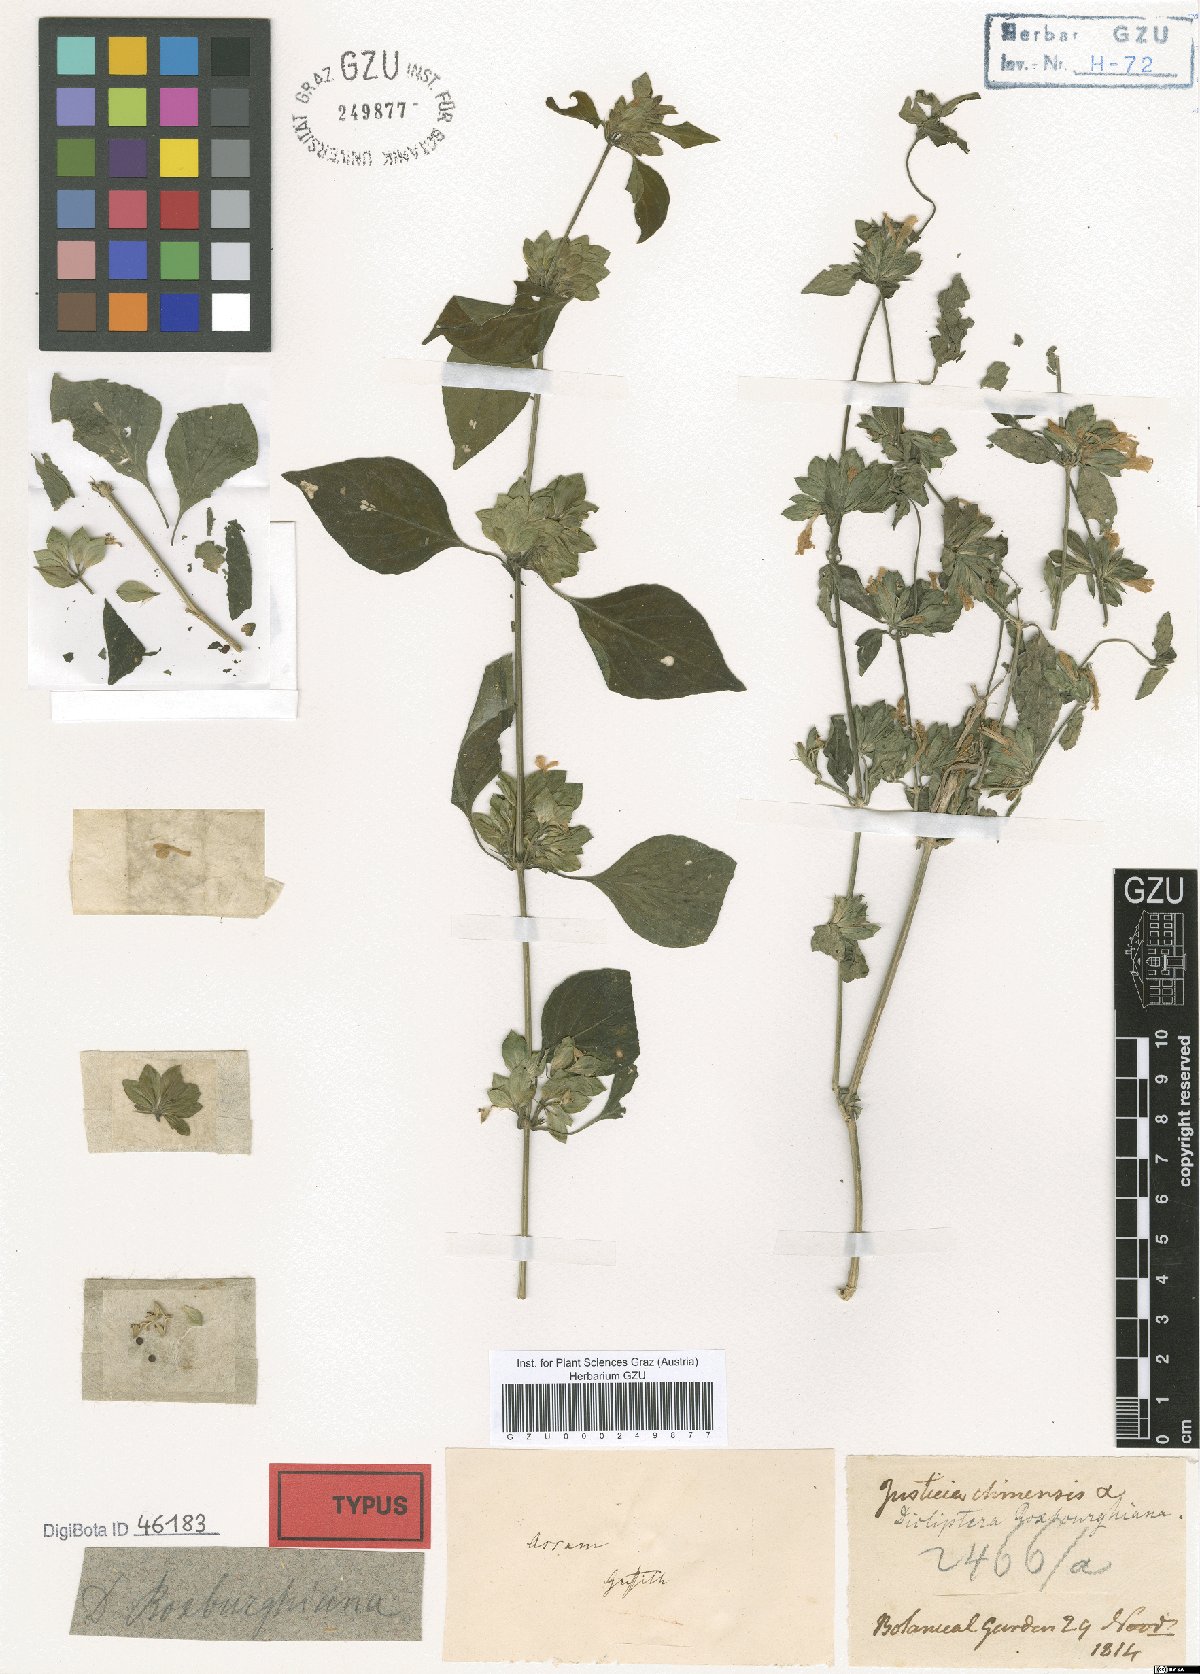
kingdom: Plantae
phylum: Tracheophyta
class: Magnoliopsida
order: Lamiales
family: Acanthaceae
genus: Dicliptera
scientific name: Dicliptera chinensis
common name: Chinese foldwing
